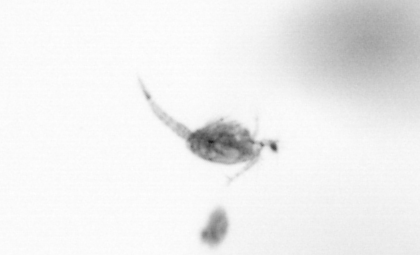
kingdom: Animalia
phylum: Arthropoda
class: Copepoda
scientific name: Copepoda
